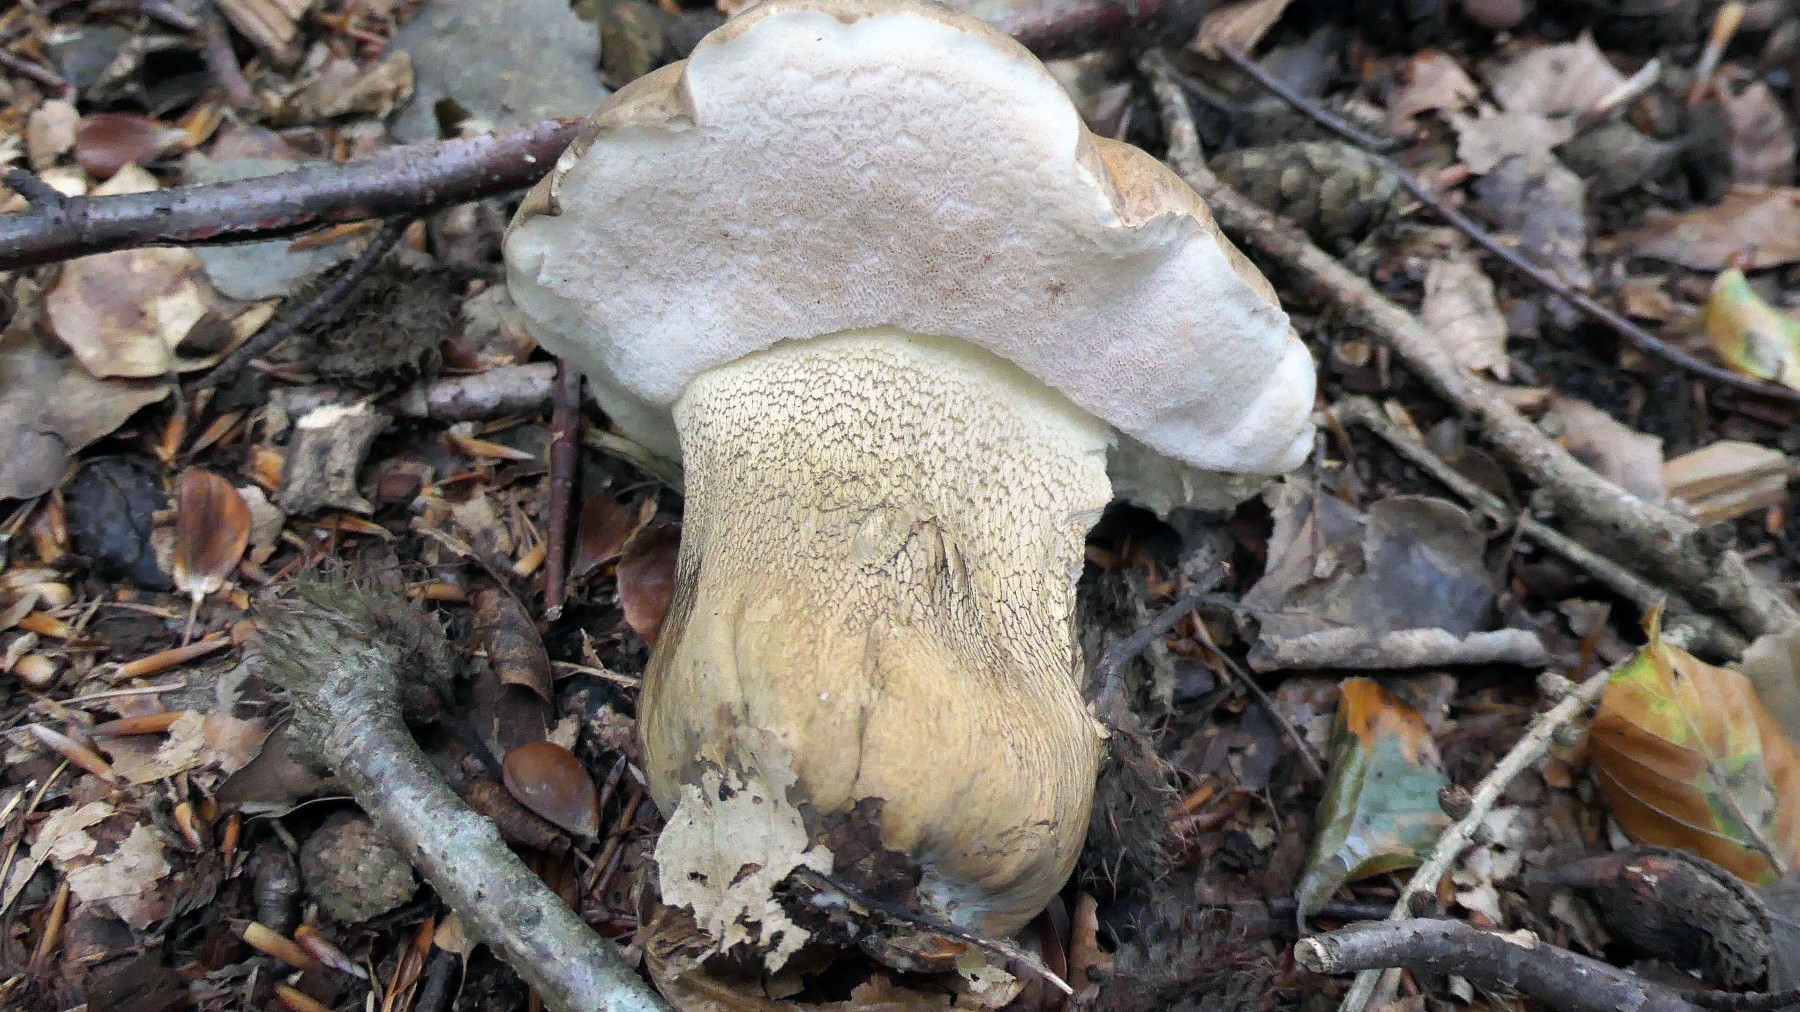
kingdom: Fungi
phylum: Basidiomycota
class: Agaricomycetes
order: Boletales
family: Boletaceae
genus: Tylopilus
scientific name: Tylopilus felleus
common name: galderørhat
